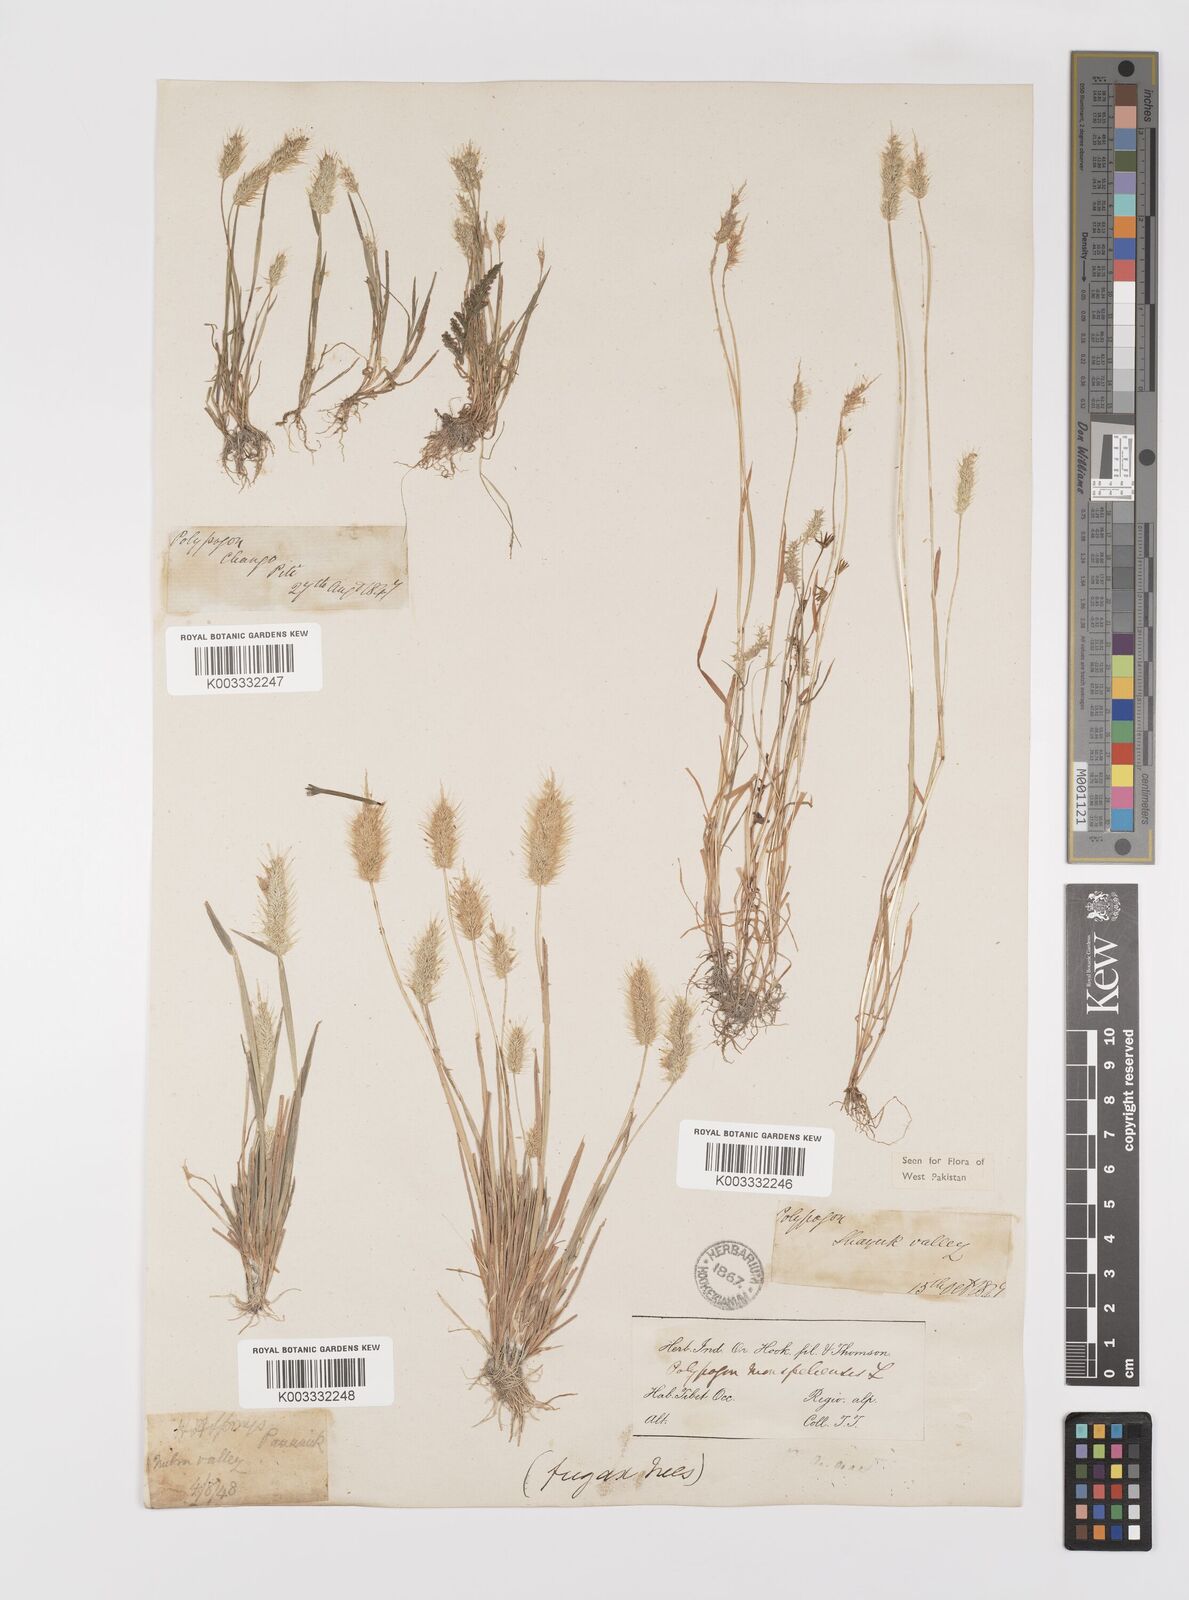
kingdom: Plantae
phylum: Tracheophyta
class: Liliopsida
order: Poales
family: Poaceae
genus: Polypogon
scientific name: Polypogon monspeliensis
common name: Annual rabbitsfoot grass
